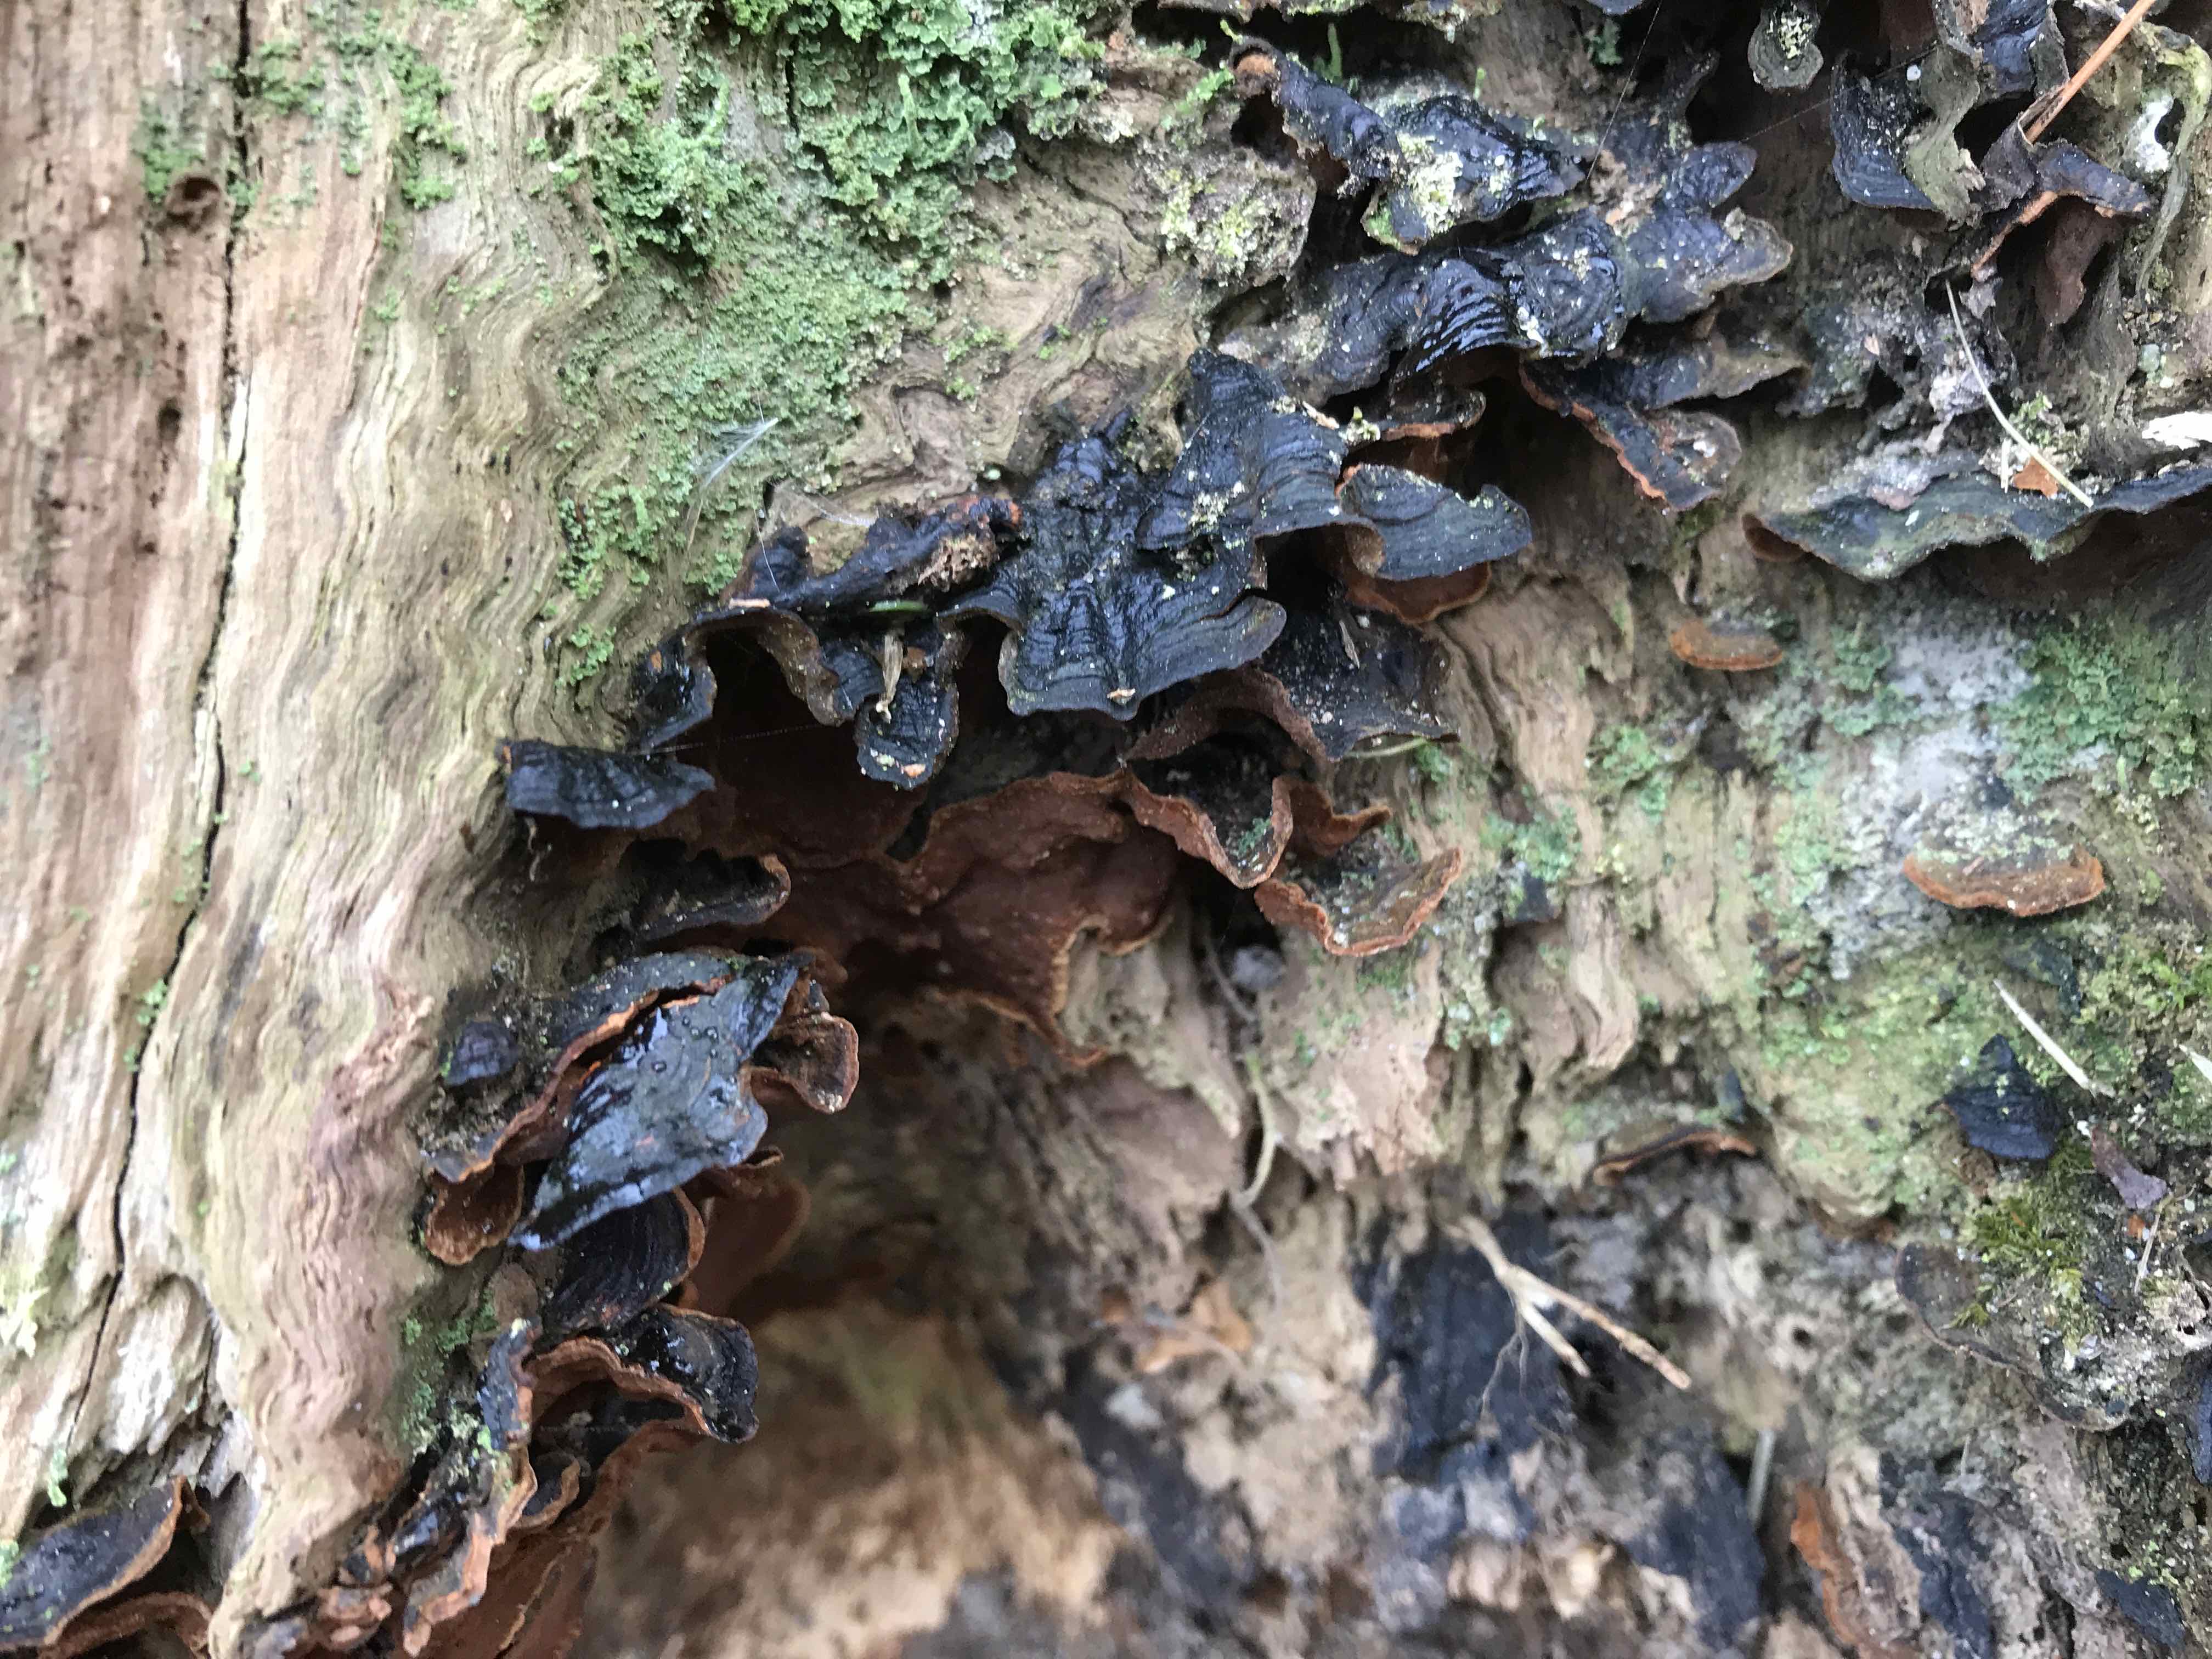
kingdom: Fungi
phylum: Basidiomycota
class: Agaricomycetes
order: Hymenochaetales
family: Hymenochaetaceae
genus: Hymenochaete
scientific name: Hymenochaete rubiginosa
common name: stiv ruslædersvamp
